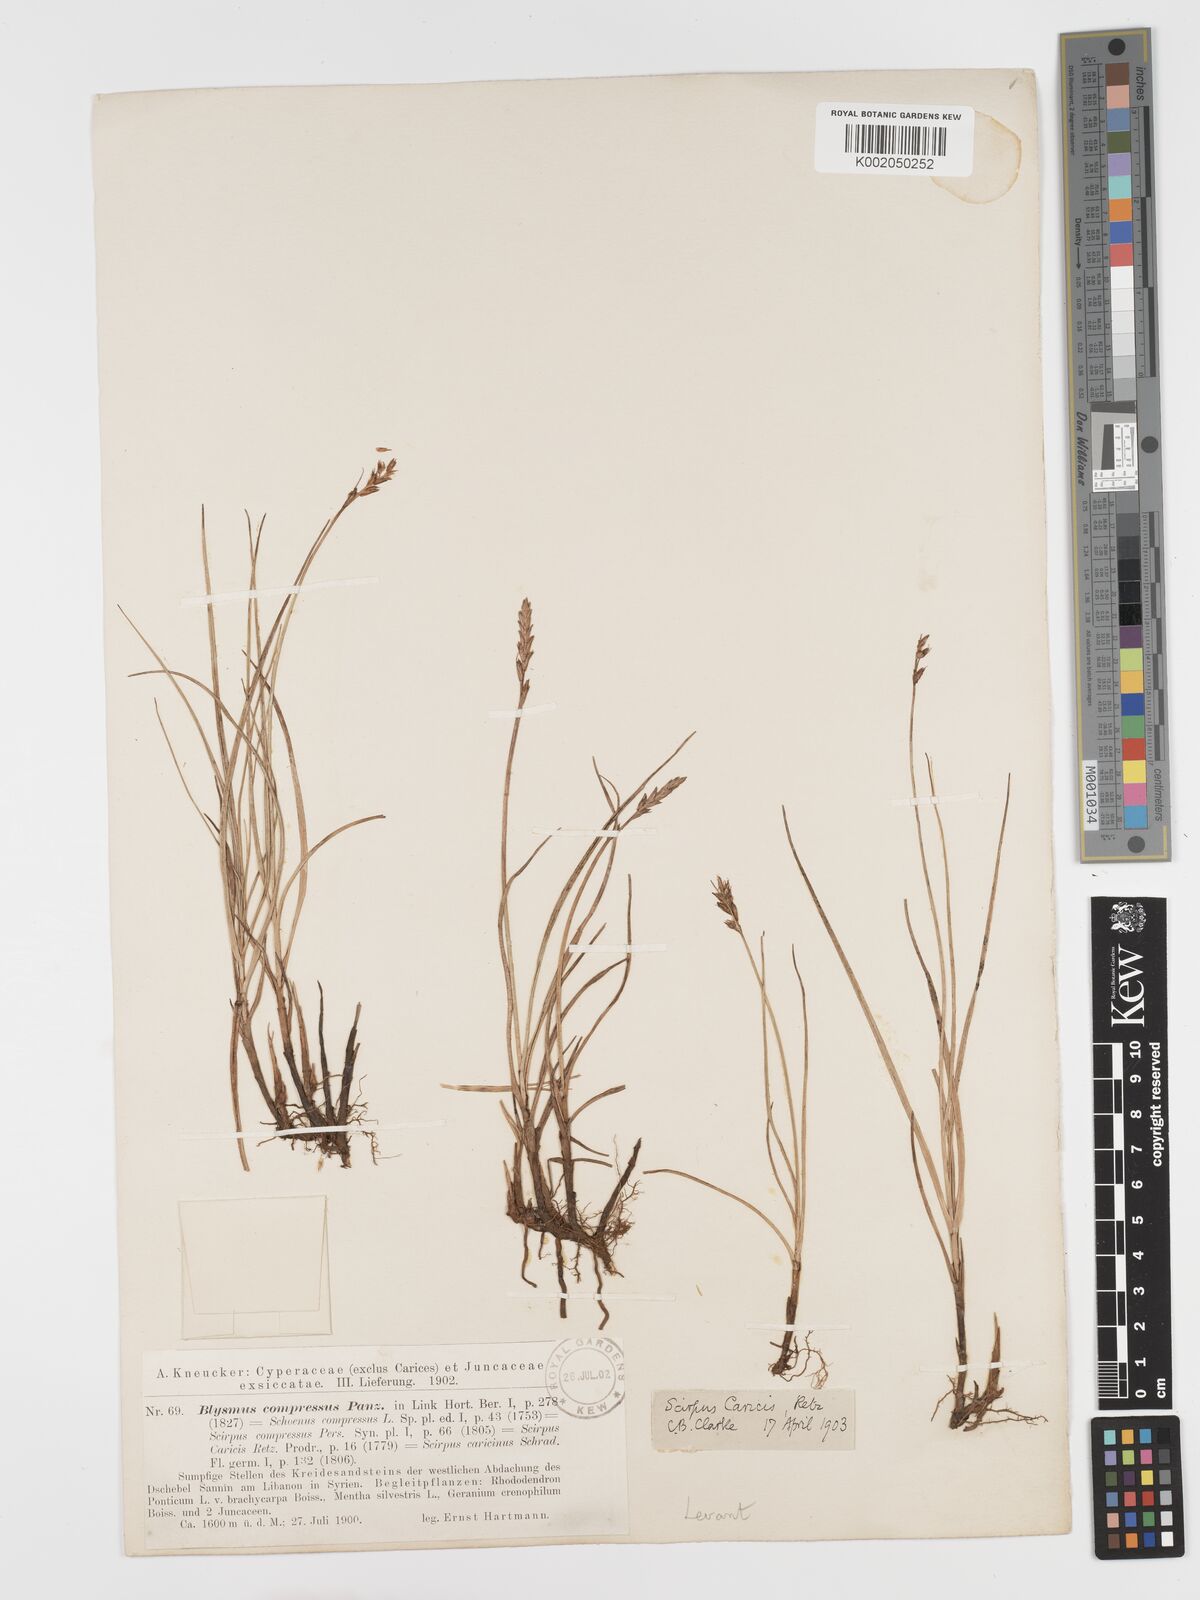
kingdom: Plantae
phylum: Tracheophyta
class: Liliopsida
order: Poales
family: Cyperaceae
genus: Blysmus
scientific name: Blysmus compressus
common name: Flat-sedge
